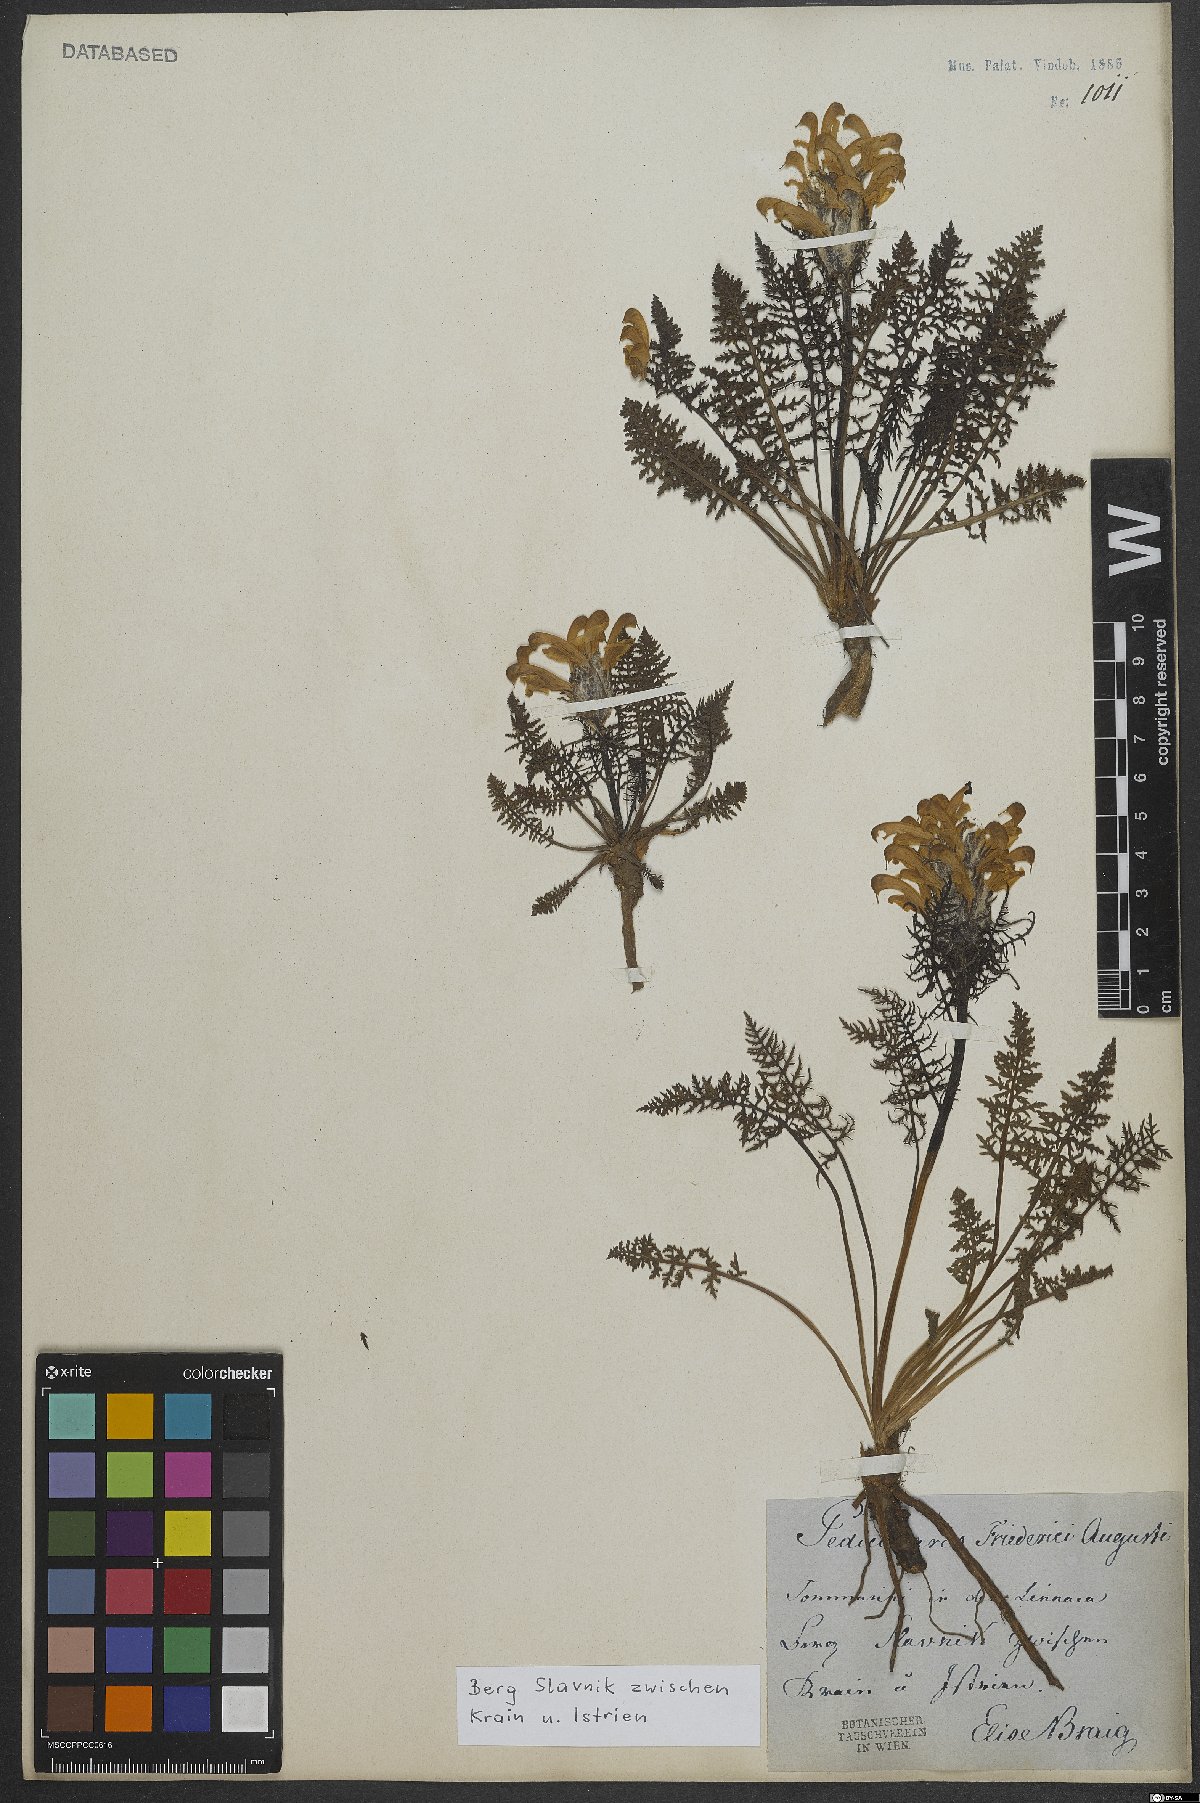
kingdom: Plantae
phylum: Tracheophyta
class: Magnoliopsida
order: Lamiales
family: Orobanchaceae
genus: Pedicularis
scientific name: Pedicularis friderici-augusti
